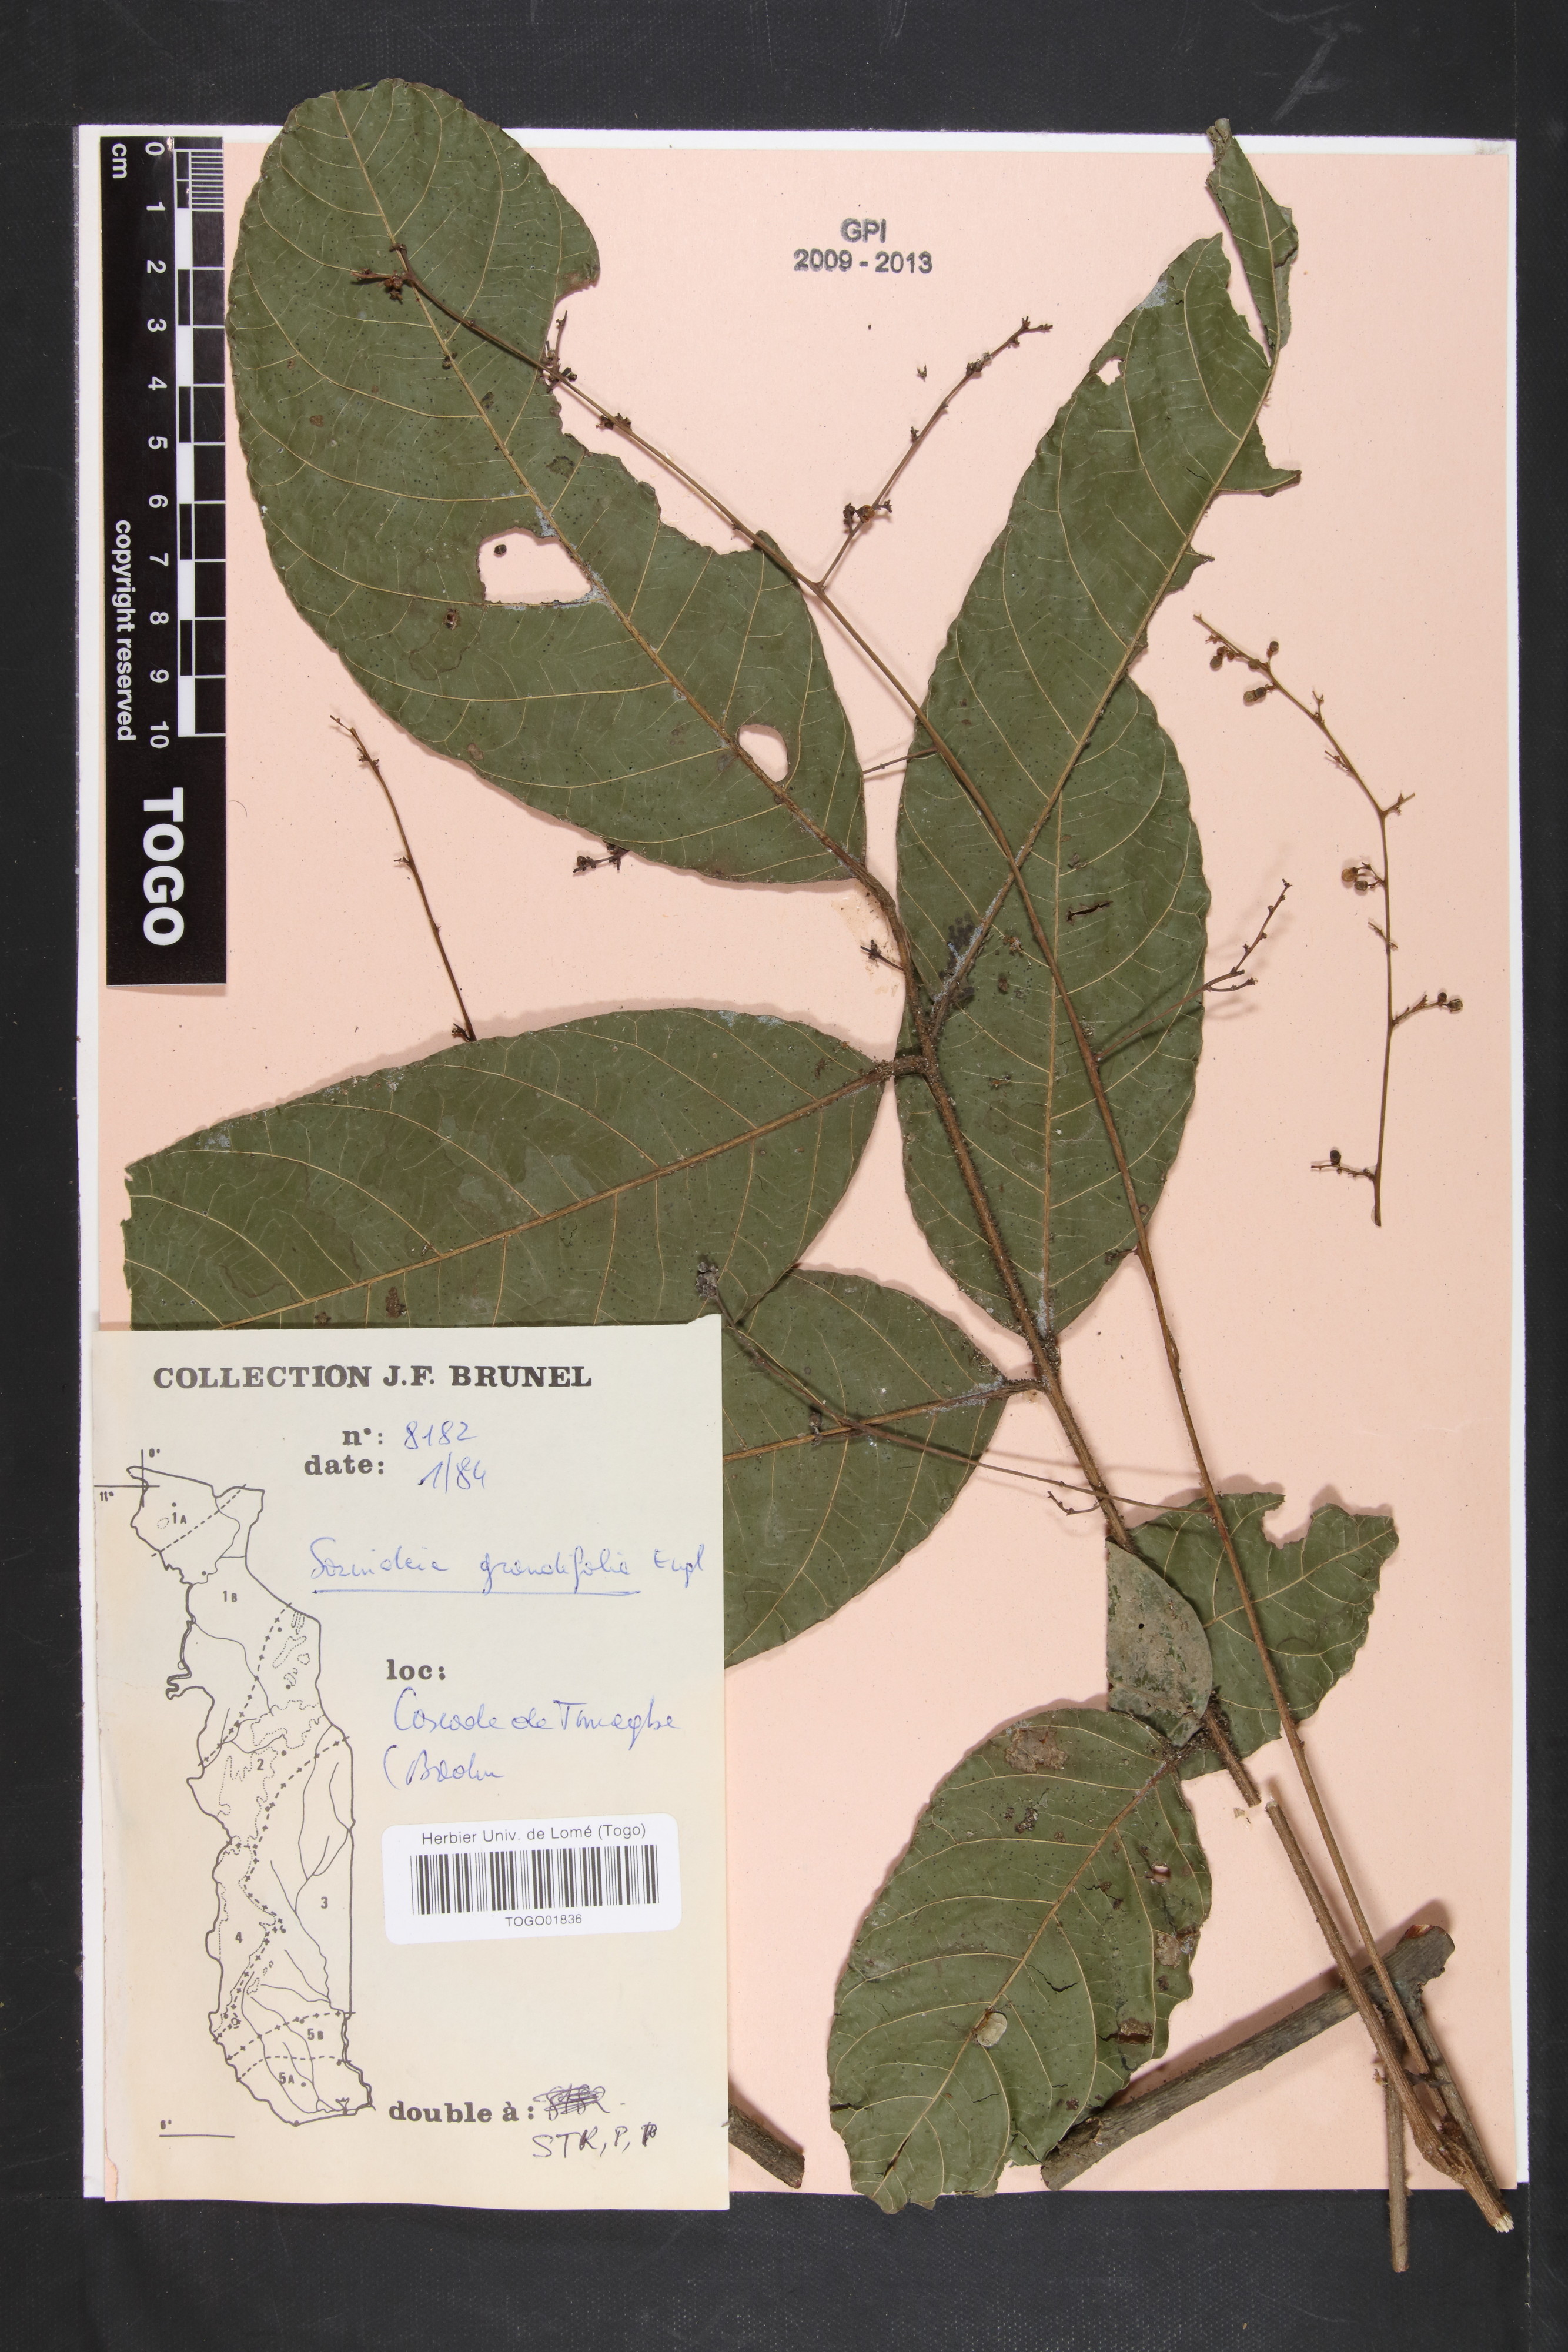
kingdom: Plantae
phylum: Tracheophyta
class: Magnoliopsida
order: Sapindales
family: Anacardiaceae
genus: Sorindeia
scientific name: Sorindeia grandifolia
